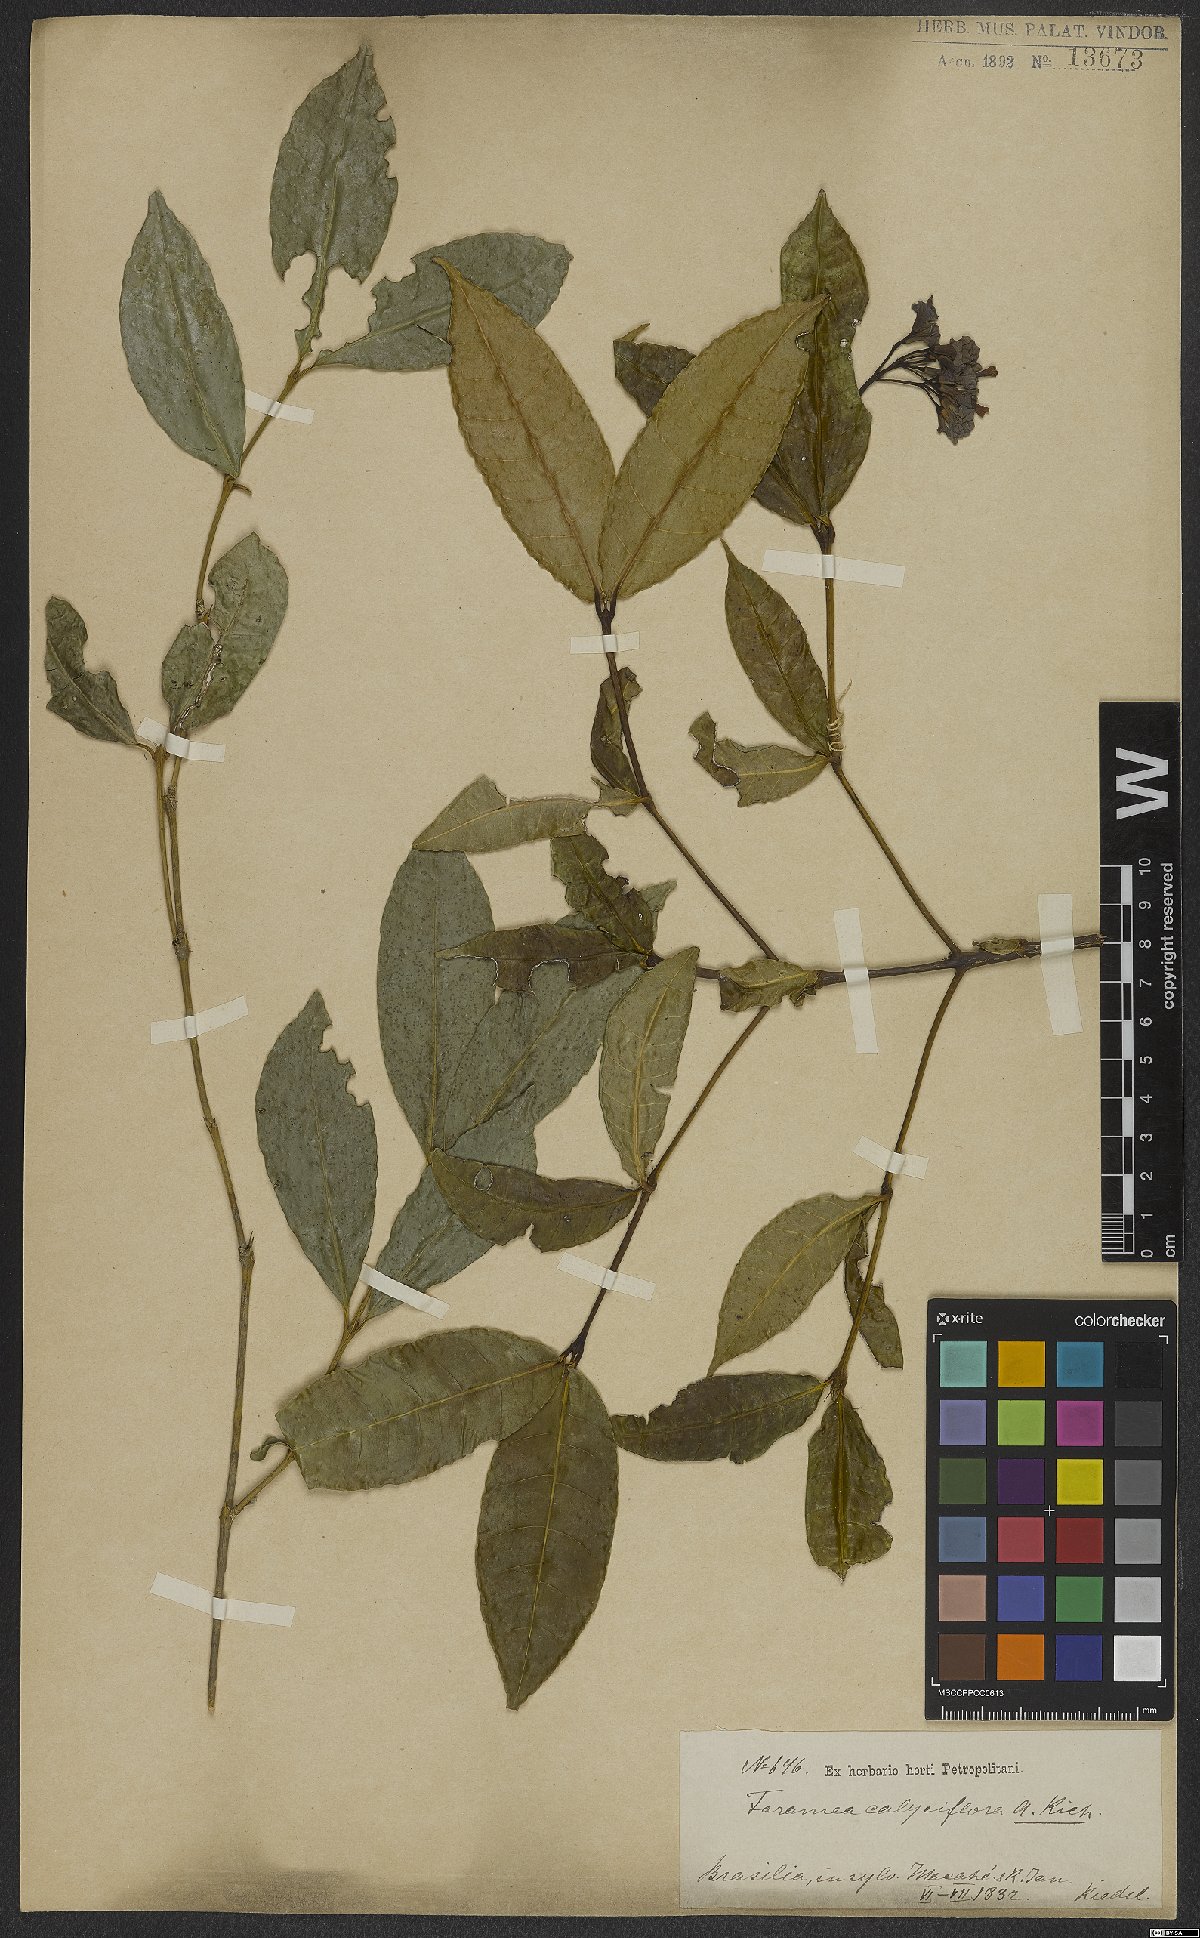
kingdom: Plantae
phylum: Tracheophyta
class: Magnoliopsida
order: Gentianales
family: Rubiaceae
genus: Faramea
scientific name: Faramea calyciflora
